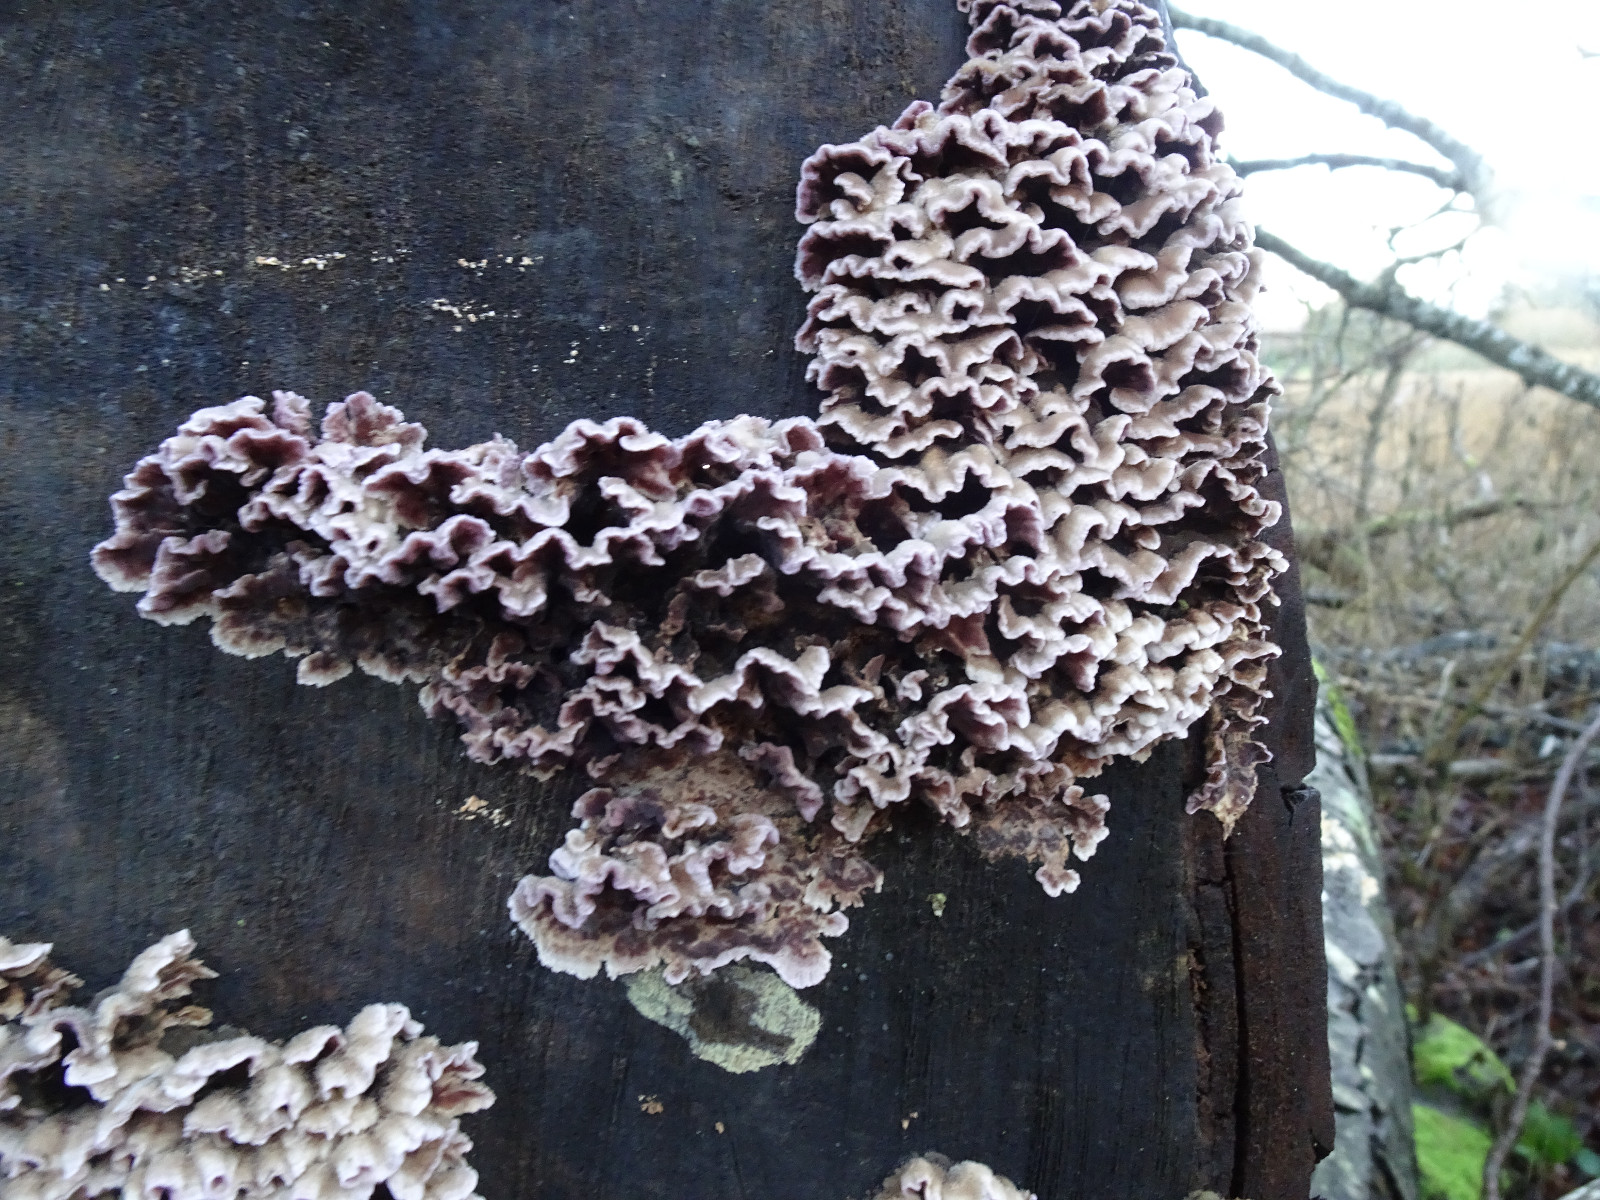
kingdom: Fungi
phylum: Basidiomycota
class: Agaricomycetes
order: Agaricales
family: Cyphellaceae
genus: Chondrostereum
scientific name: Chondrostereum purpureum
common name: purpurlædersvamp
